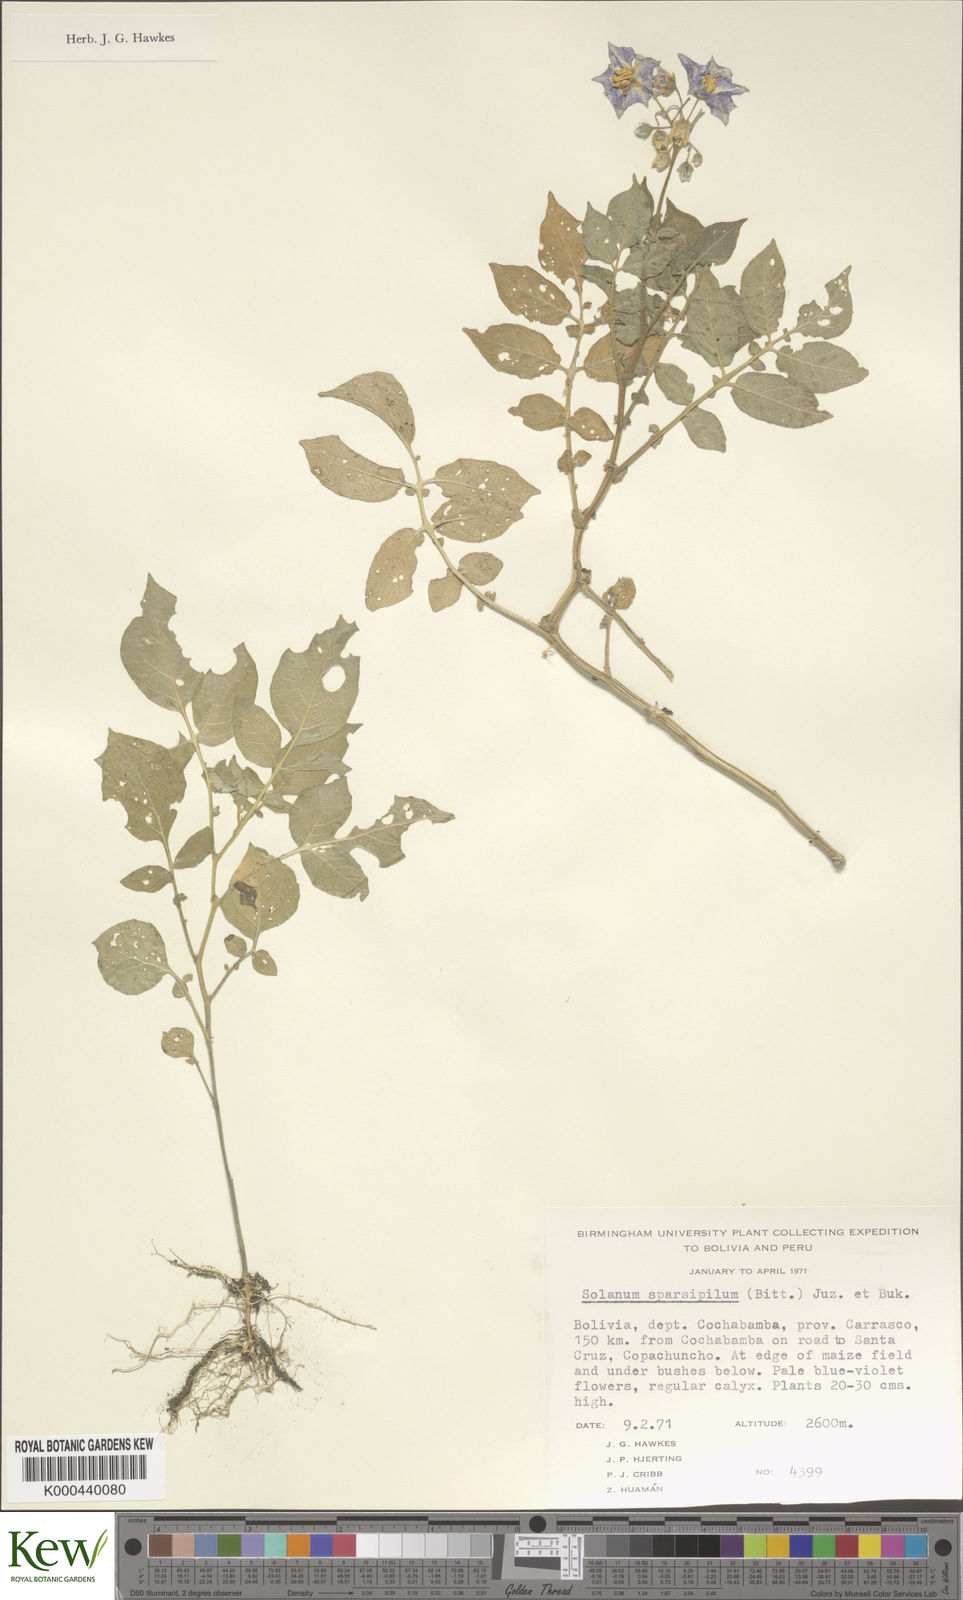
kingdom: Plantae
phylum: Tracheophyta
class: Magnoliopsida
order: Solanales
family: Solanaceae
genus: Solanum
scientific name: Solanum brevicaule
